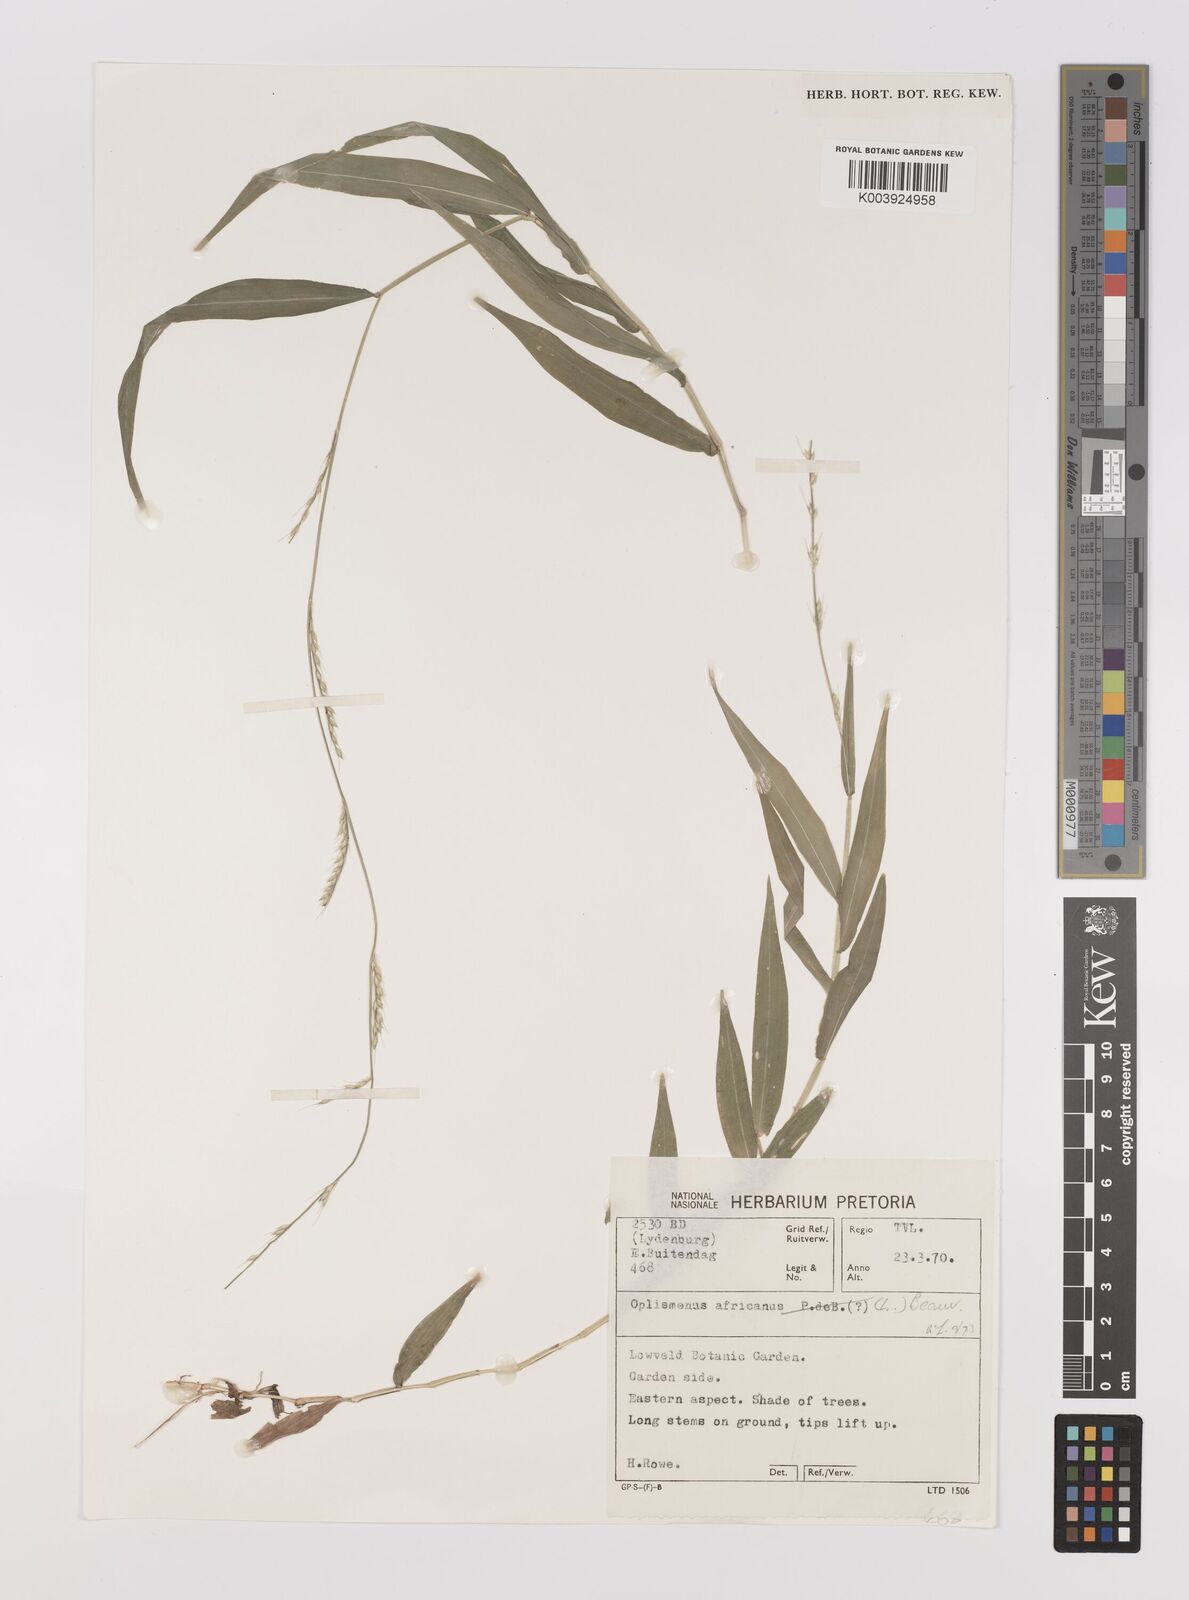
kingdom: Plantae
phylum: Tracheophyta
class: Liliopsida
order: Poales
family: Poaceae
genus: Oplismenus
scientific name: Oplismenus hirtellus
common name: Basketgrass
